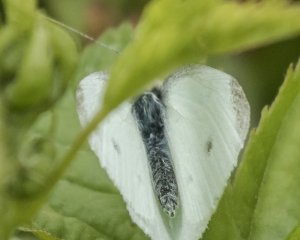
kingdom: Animalia
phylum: Arthropoda
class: Insecta
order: Lepidoptera
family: Pieridae
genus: Pieris
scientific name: Pieris rapae
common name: Cabbage White
